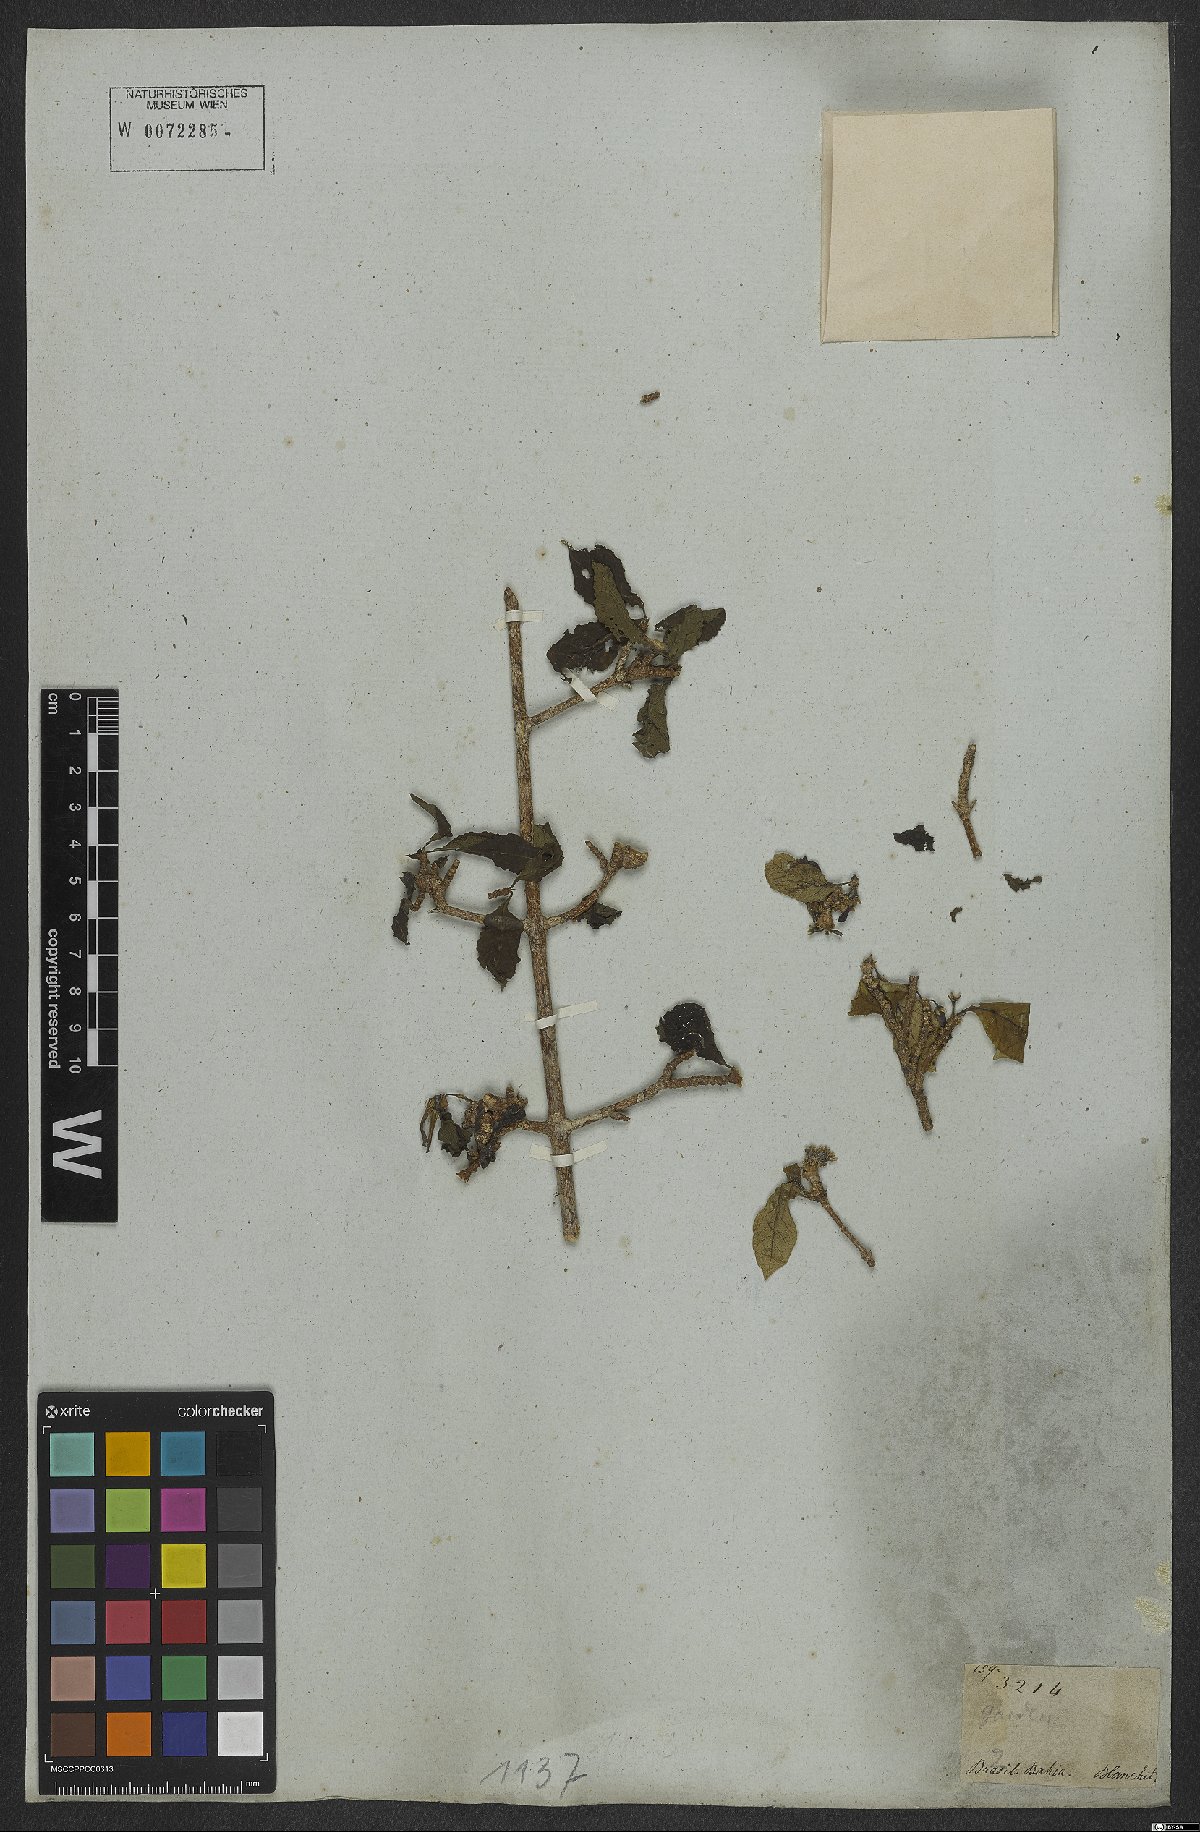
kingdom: Plantae
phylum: Tracheophyta
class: Magnoliopsida
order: Gentianales
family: Rubiaceae
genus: Randia
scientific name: Randia
